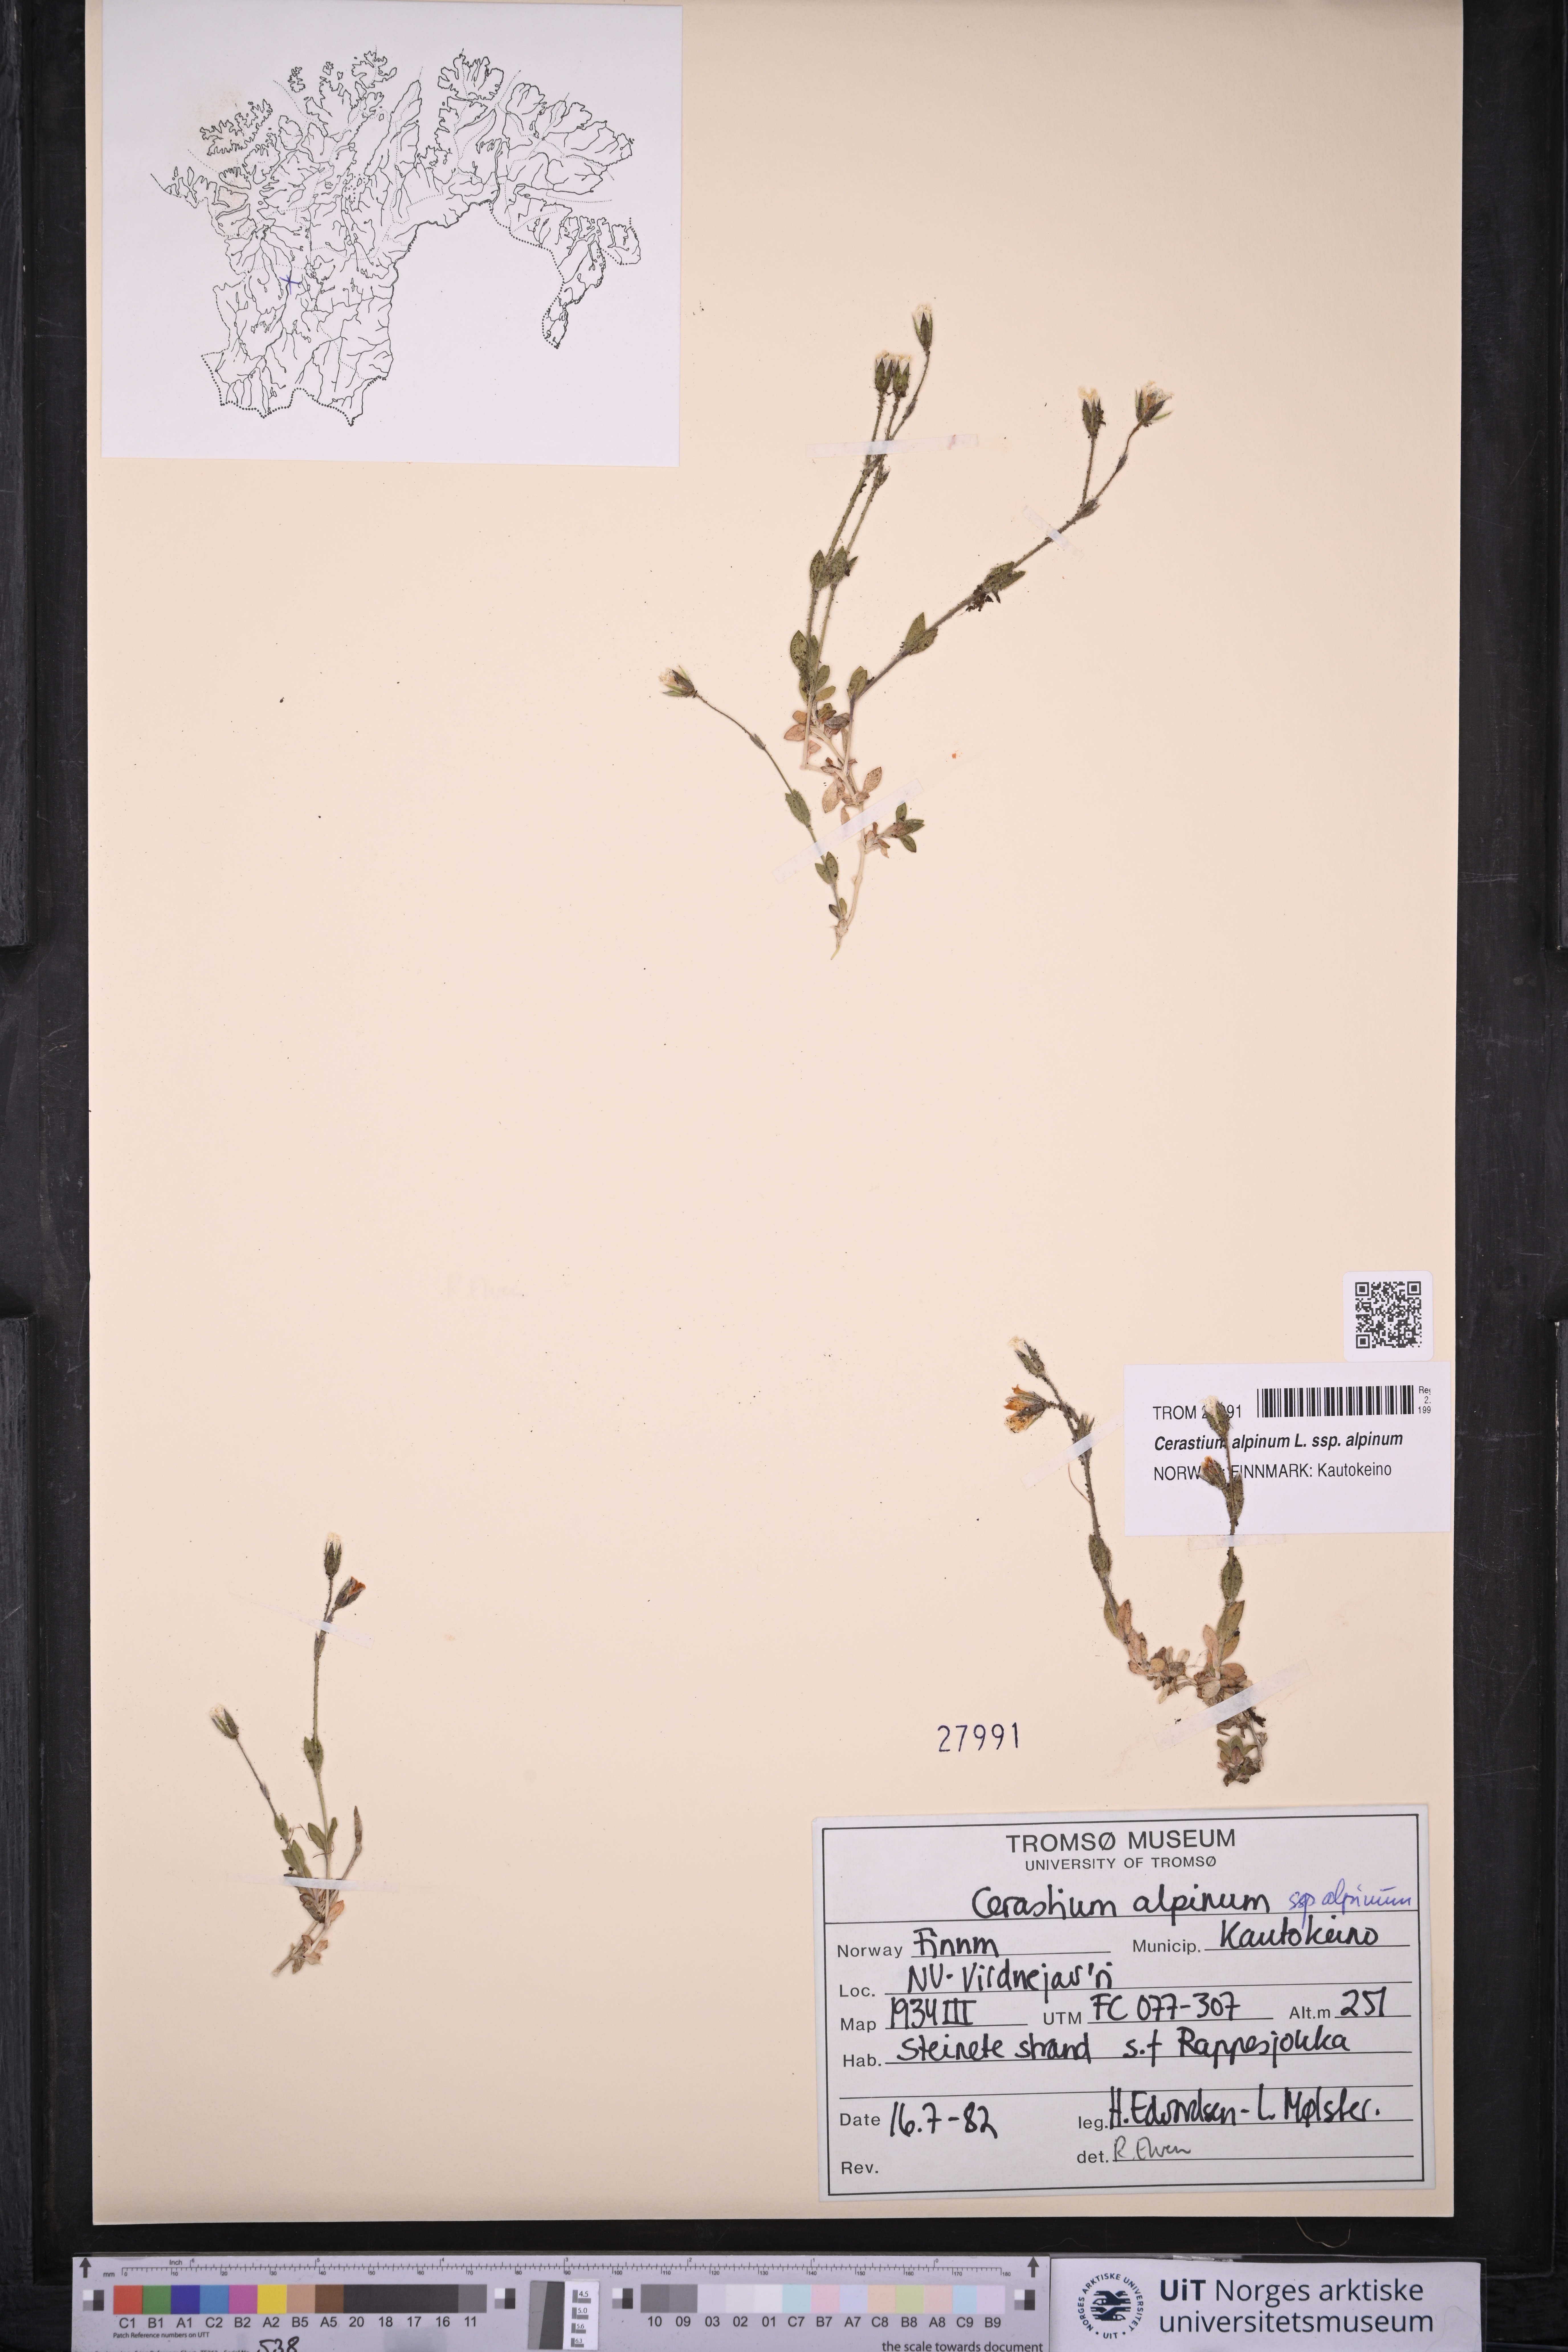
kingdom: Plantae
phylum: Tracheophyta
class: Magnoliopsida
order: Caryophyllales
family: Caryophyllaceae
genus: Cerastium
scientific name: Cerastium alpinum
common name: Alpine mouse-ear
